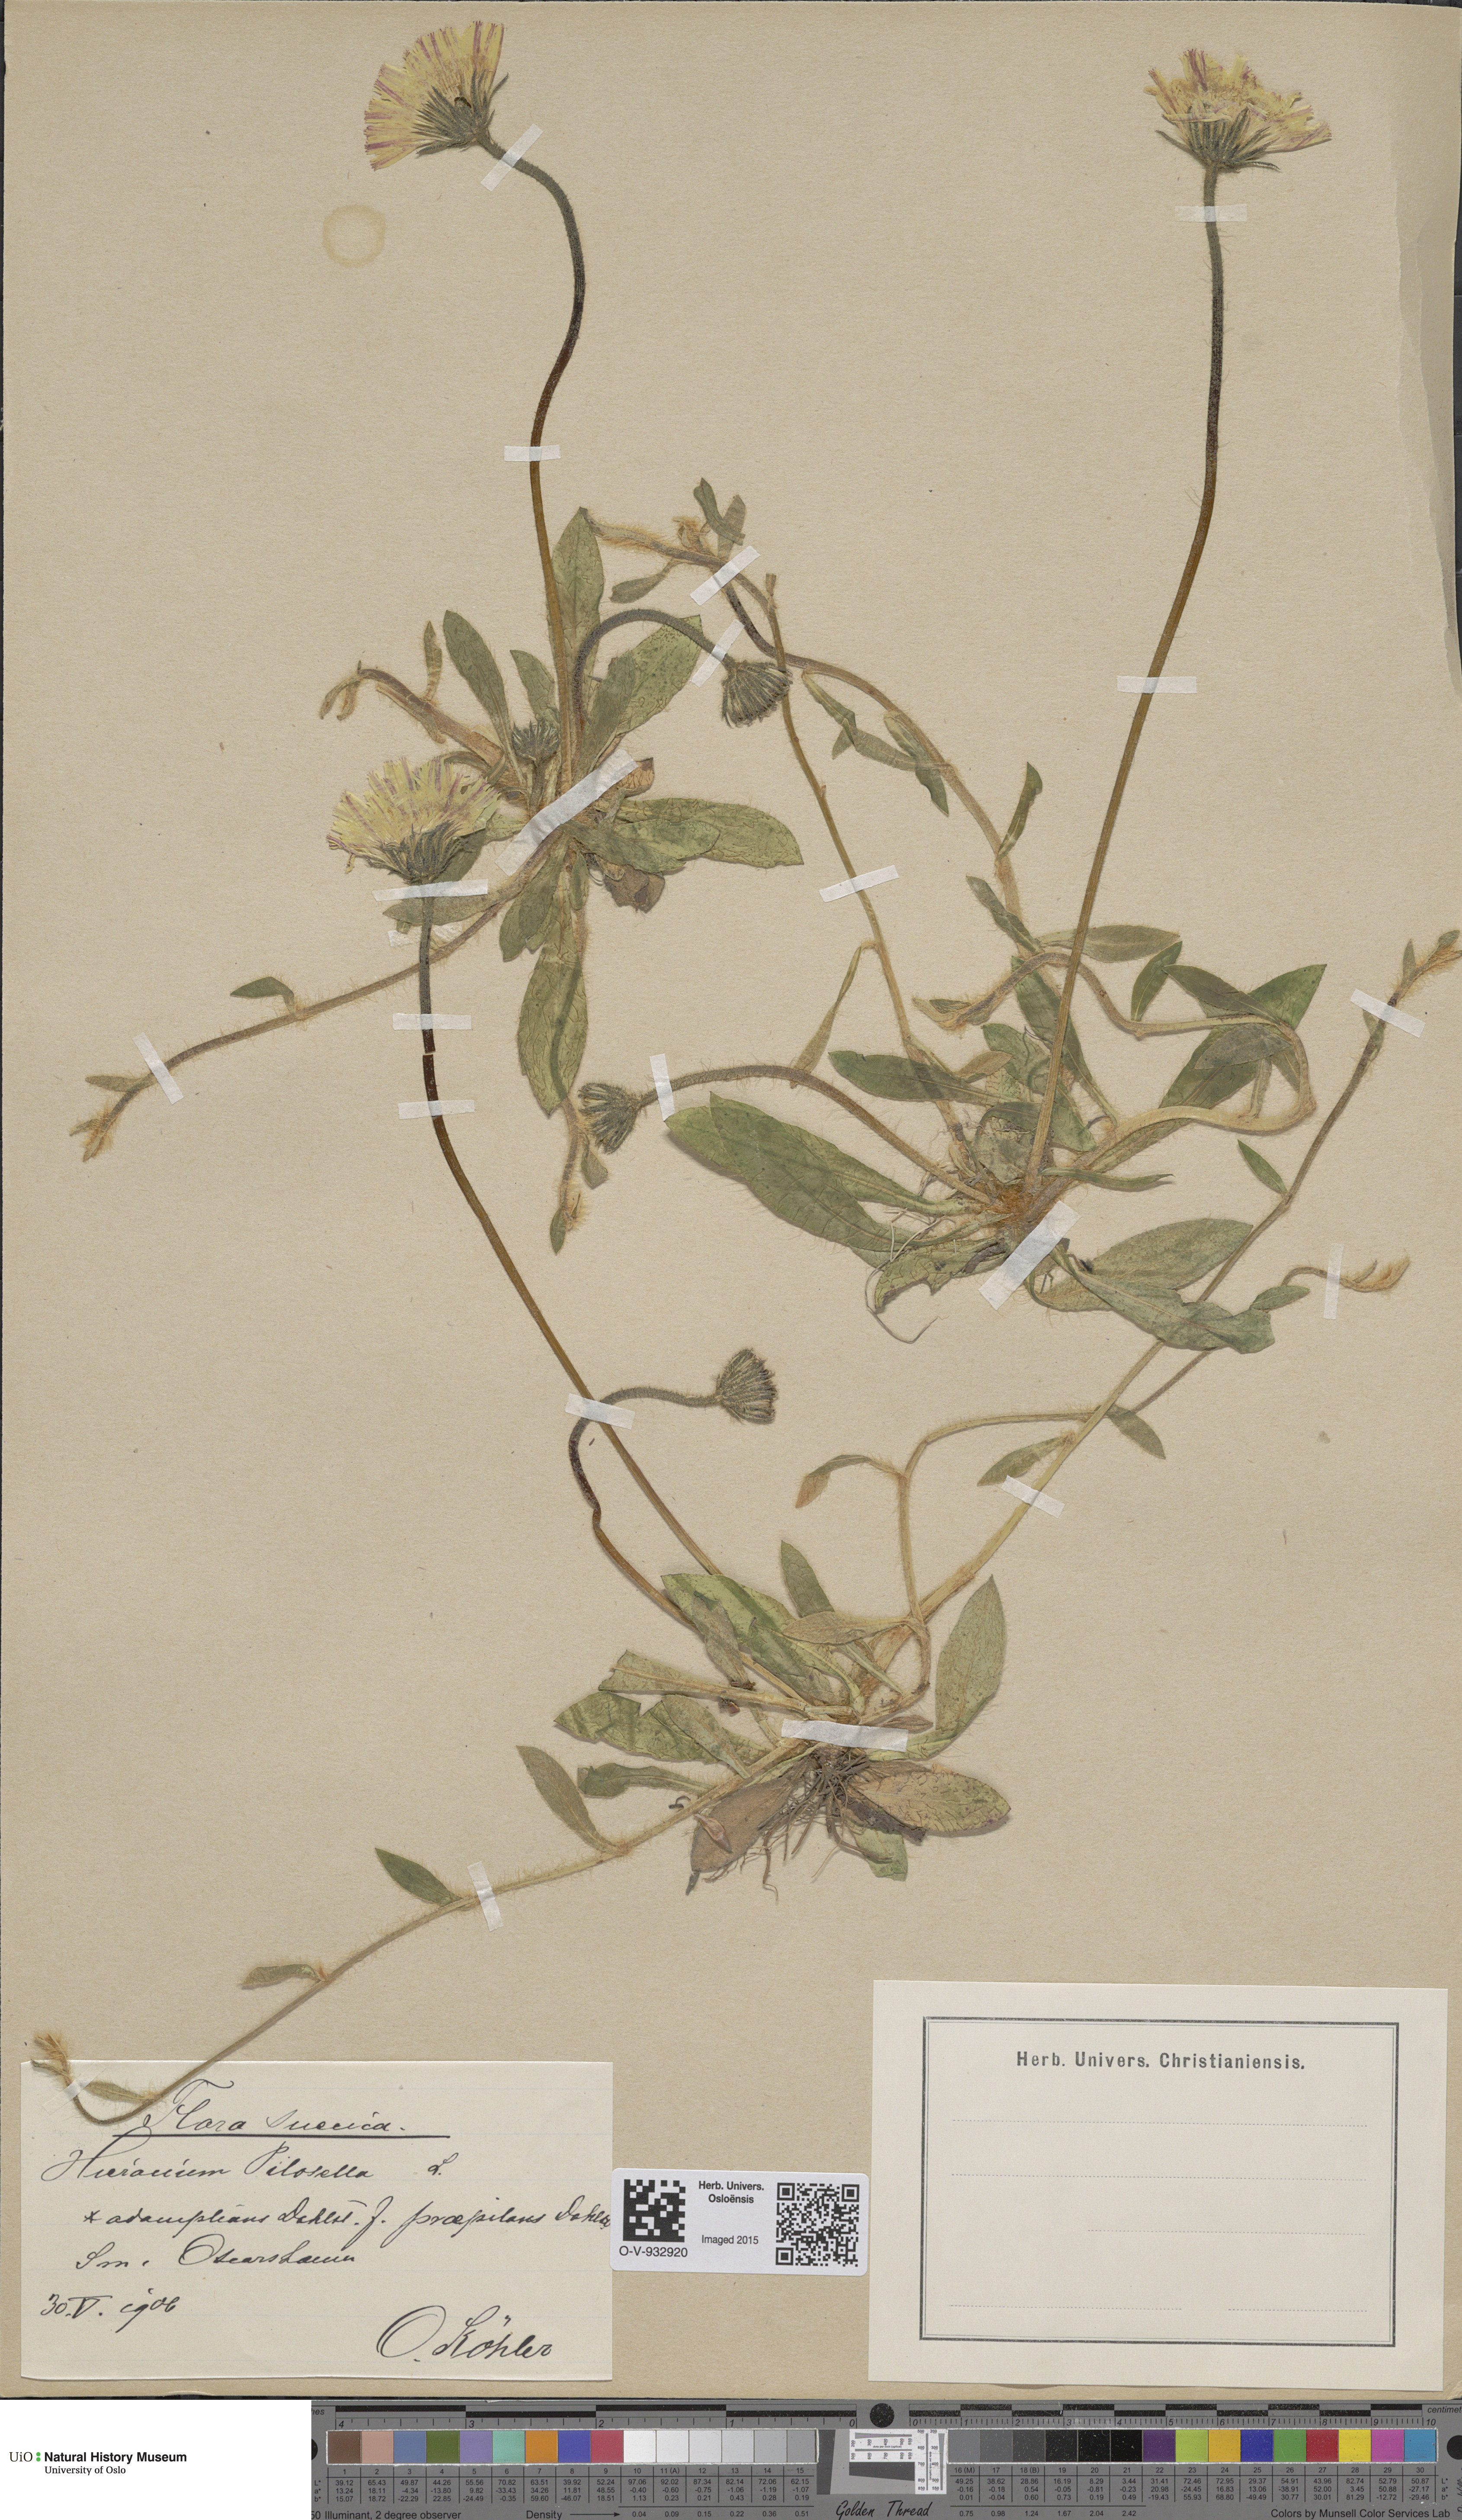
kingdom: Plantae
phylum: Tracheophyta
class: Magnoliopsida
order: Asterales
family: Asteraceae
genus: Pilosella
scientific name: Pilosella officinarum
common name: Mouse-ear hawkweed
